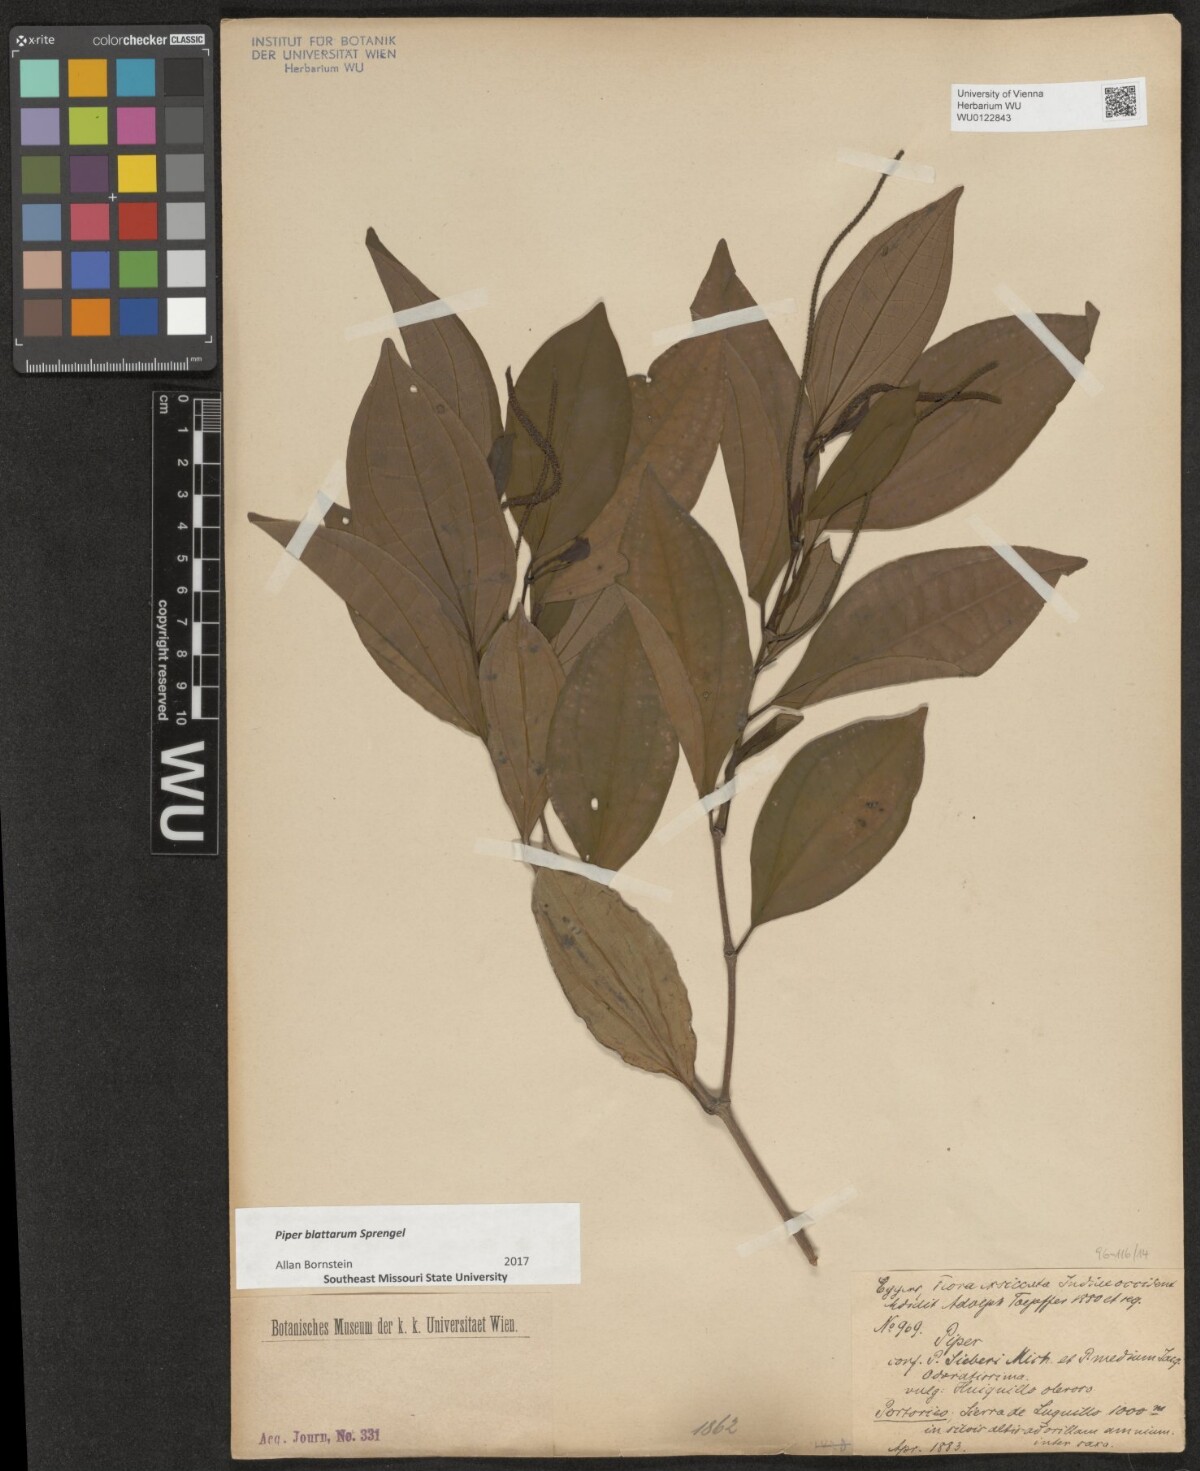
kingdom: Plantae
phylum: Tracheophyta
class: Magnoliopsida
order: Piperales
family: Piperaceae
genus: Piper
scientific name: Piper blattarum
